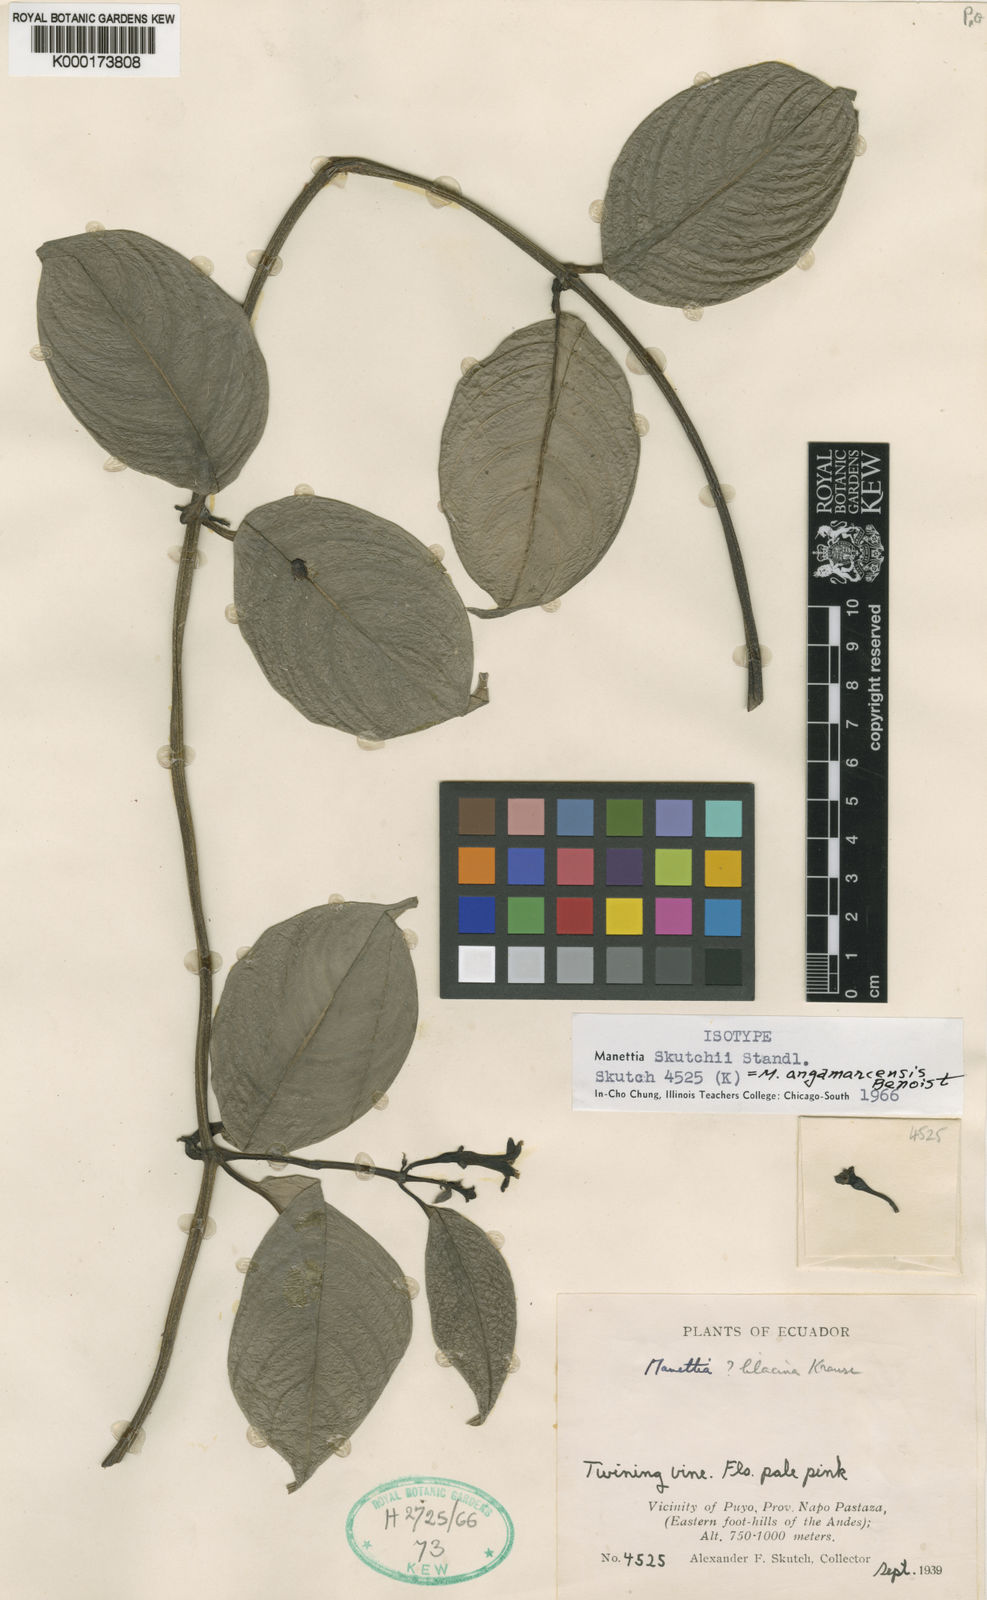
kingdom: Plantae
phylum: Tracheophyta
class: Magnoliopsida
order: Gentianales
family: Rubiaceae
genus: Manettia
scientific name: Manettia skutchii
